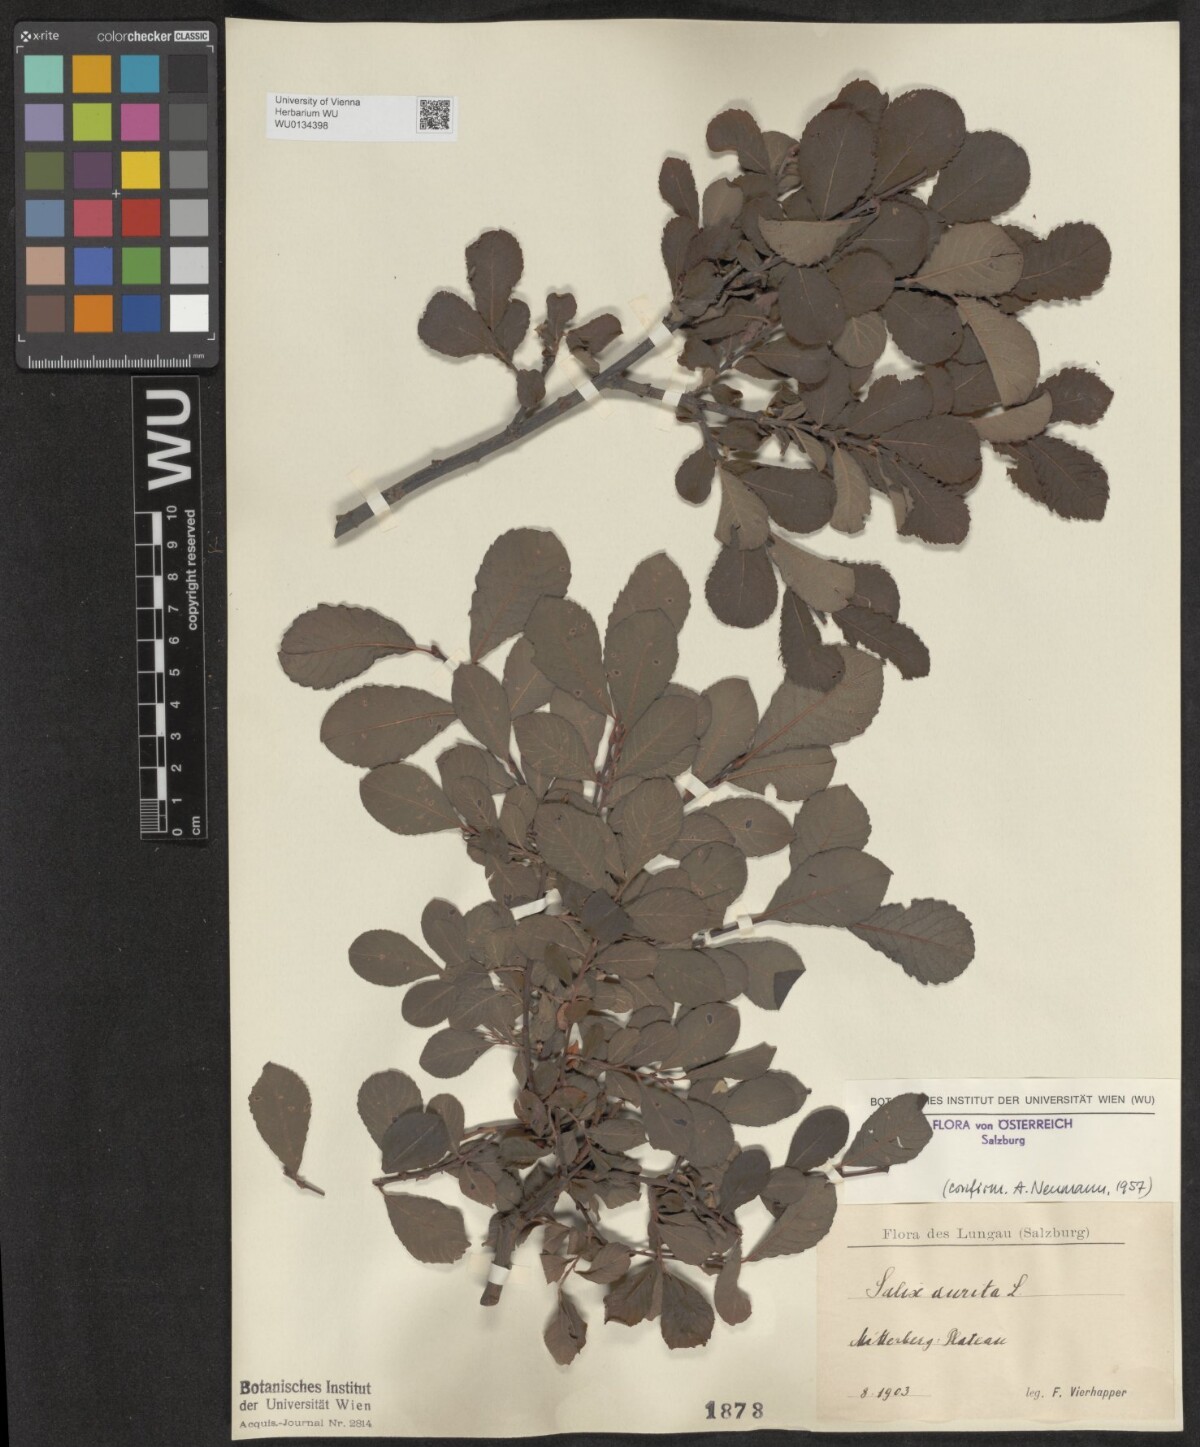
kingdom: Plantae
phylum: Tracheophyta
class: Magnoliopsida
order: Malpighiales
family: Salicaceae
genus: Salix
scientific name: Salix aurita
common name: Eared willow
